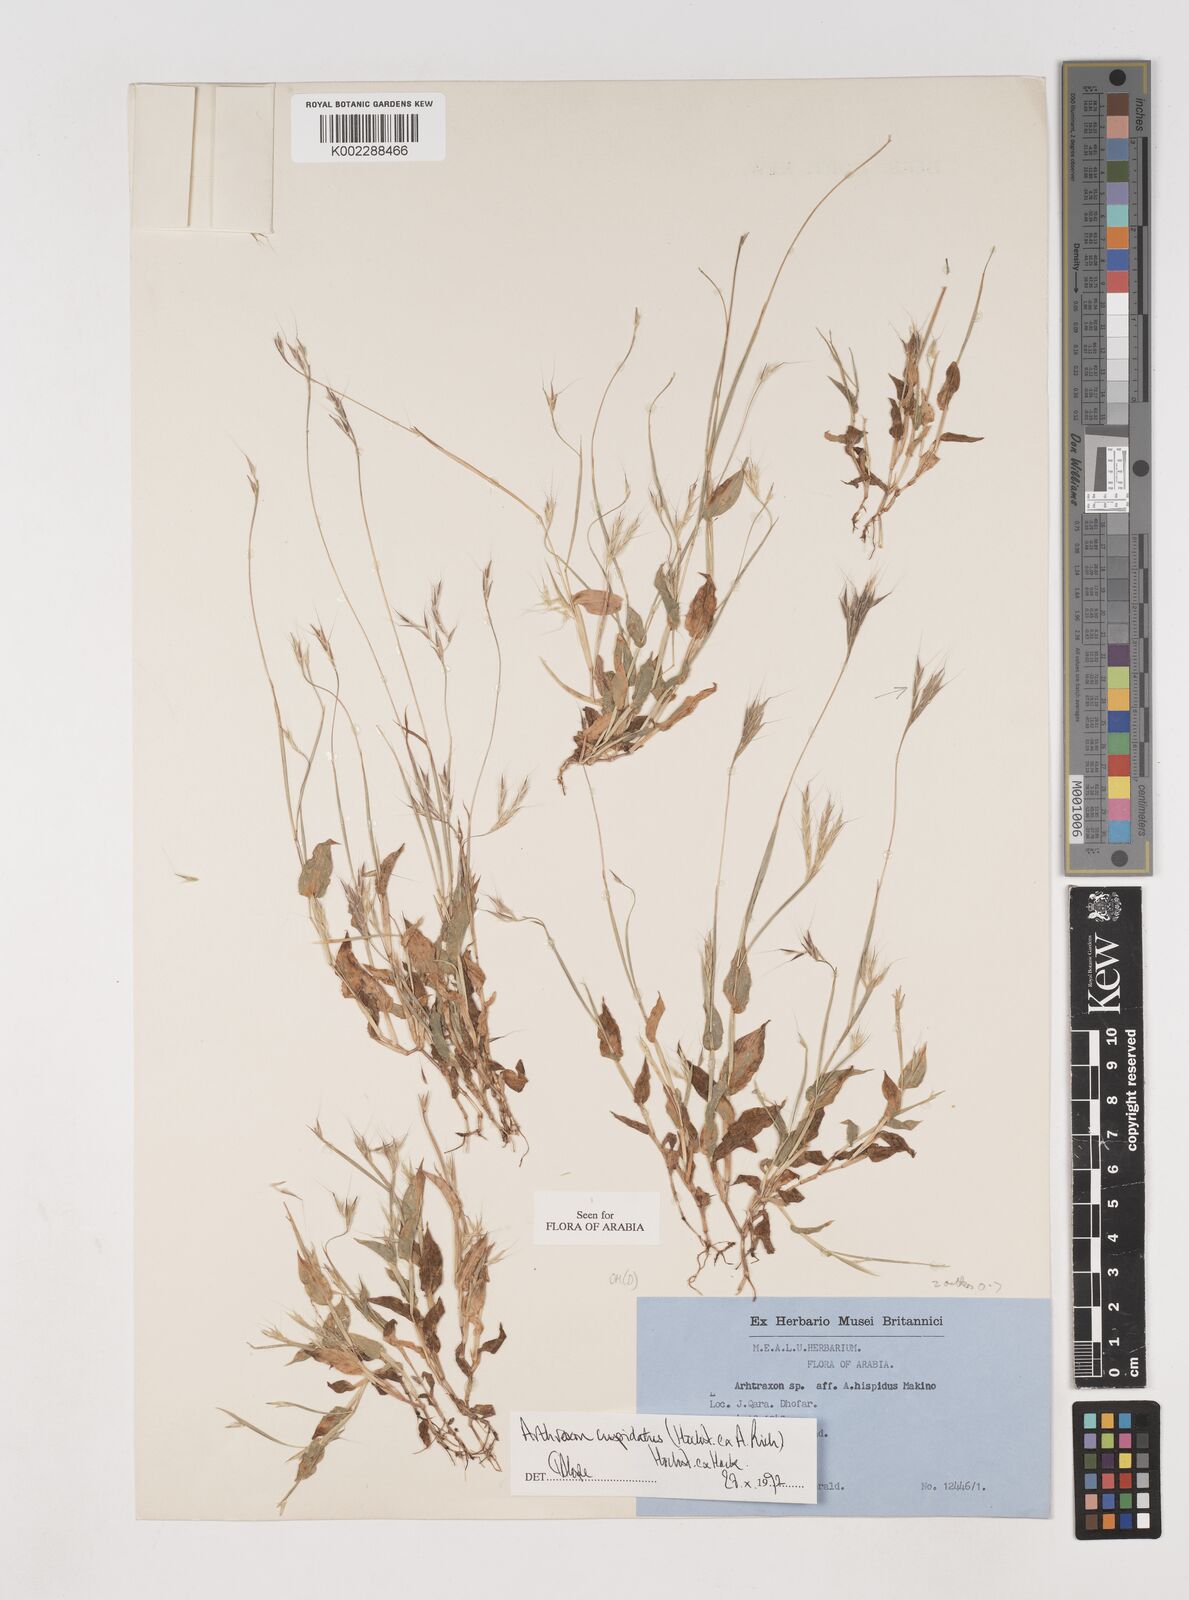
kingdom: Plantae
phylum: Tracheophyta
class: Liliopsida
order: Poales
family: Poaceae
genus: Arthraxon
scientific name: Arthraxon cuspidatus
